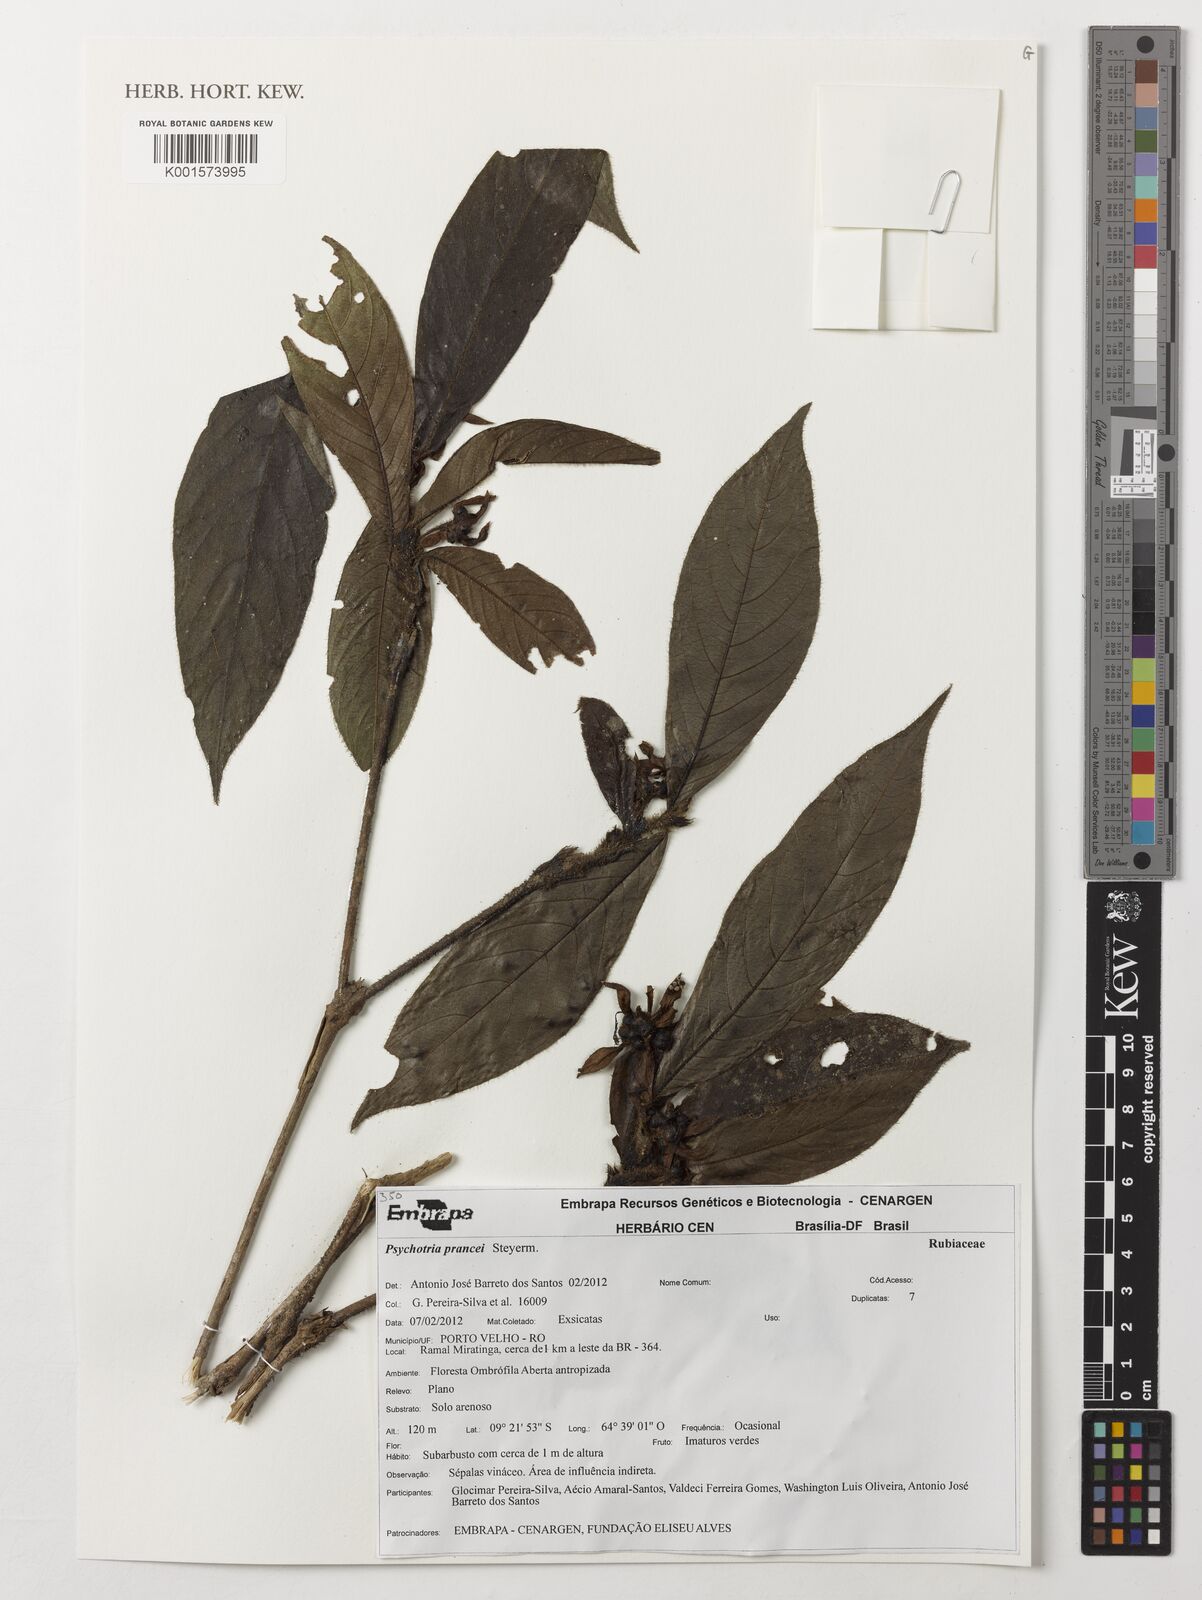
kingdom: Plantae
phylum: Tracheophyta
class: Magnoliopsida
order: Gentianales
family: Rubiaceae
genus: Palicourea
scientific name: Palicourea prancei
